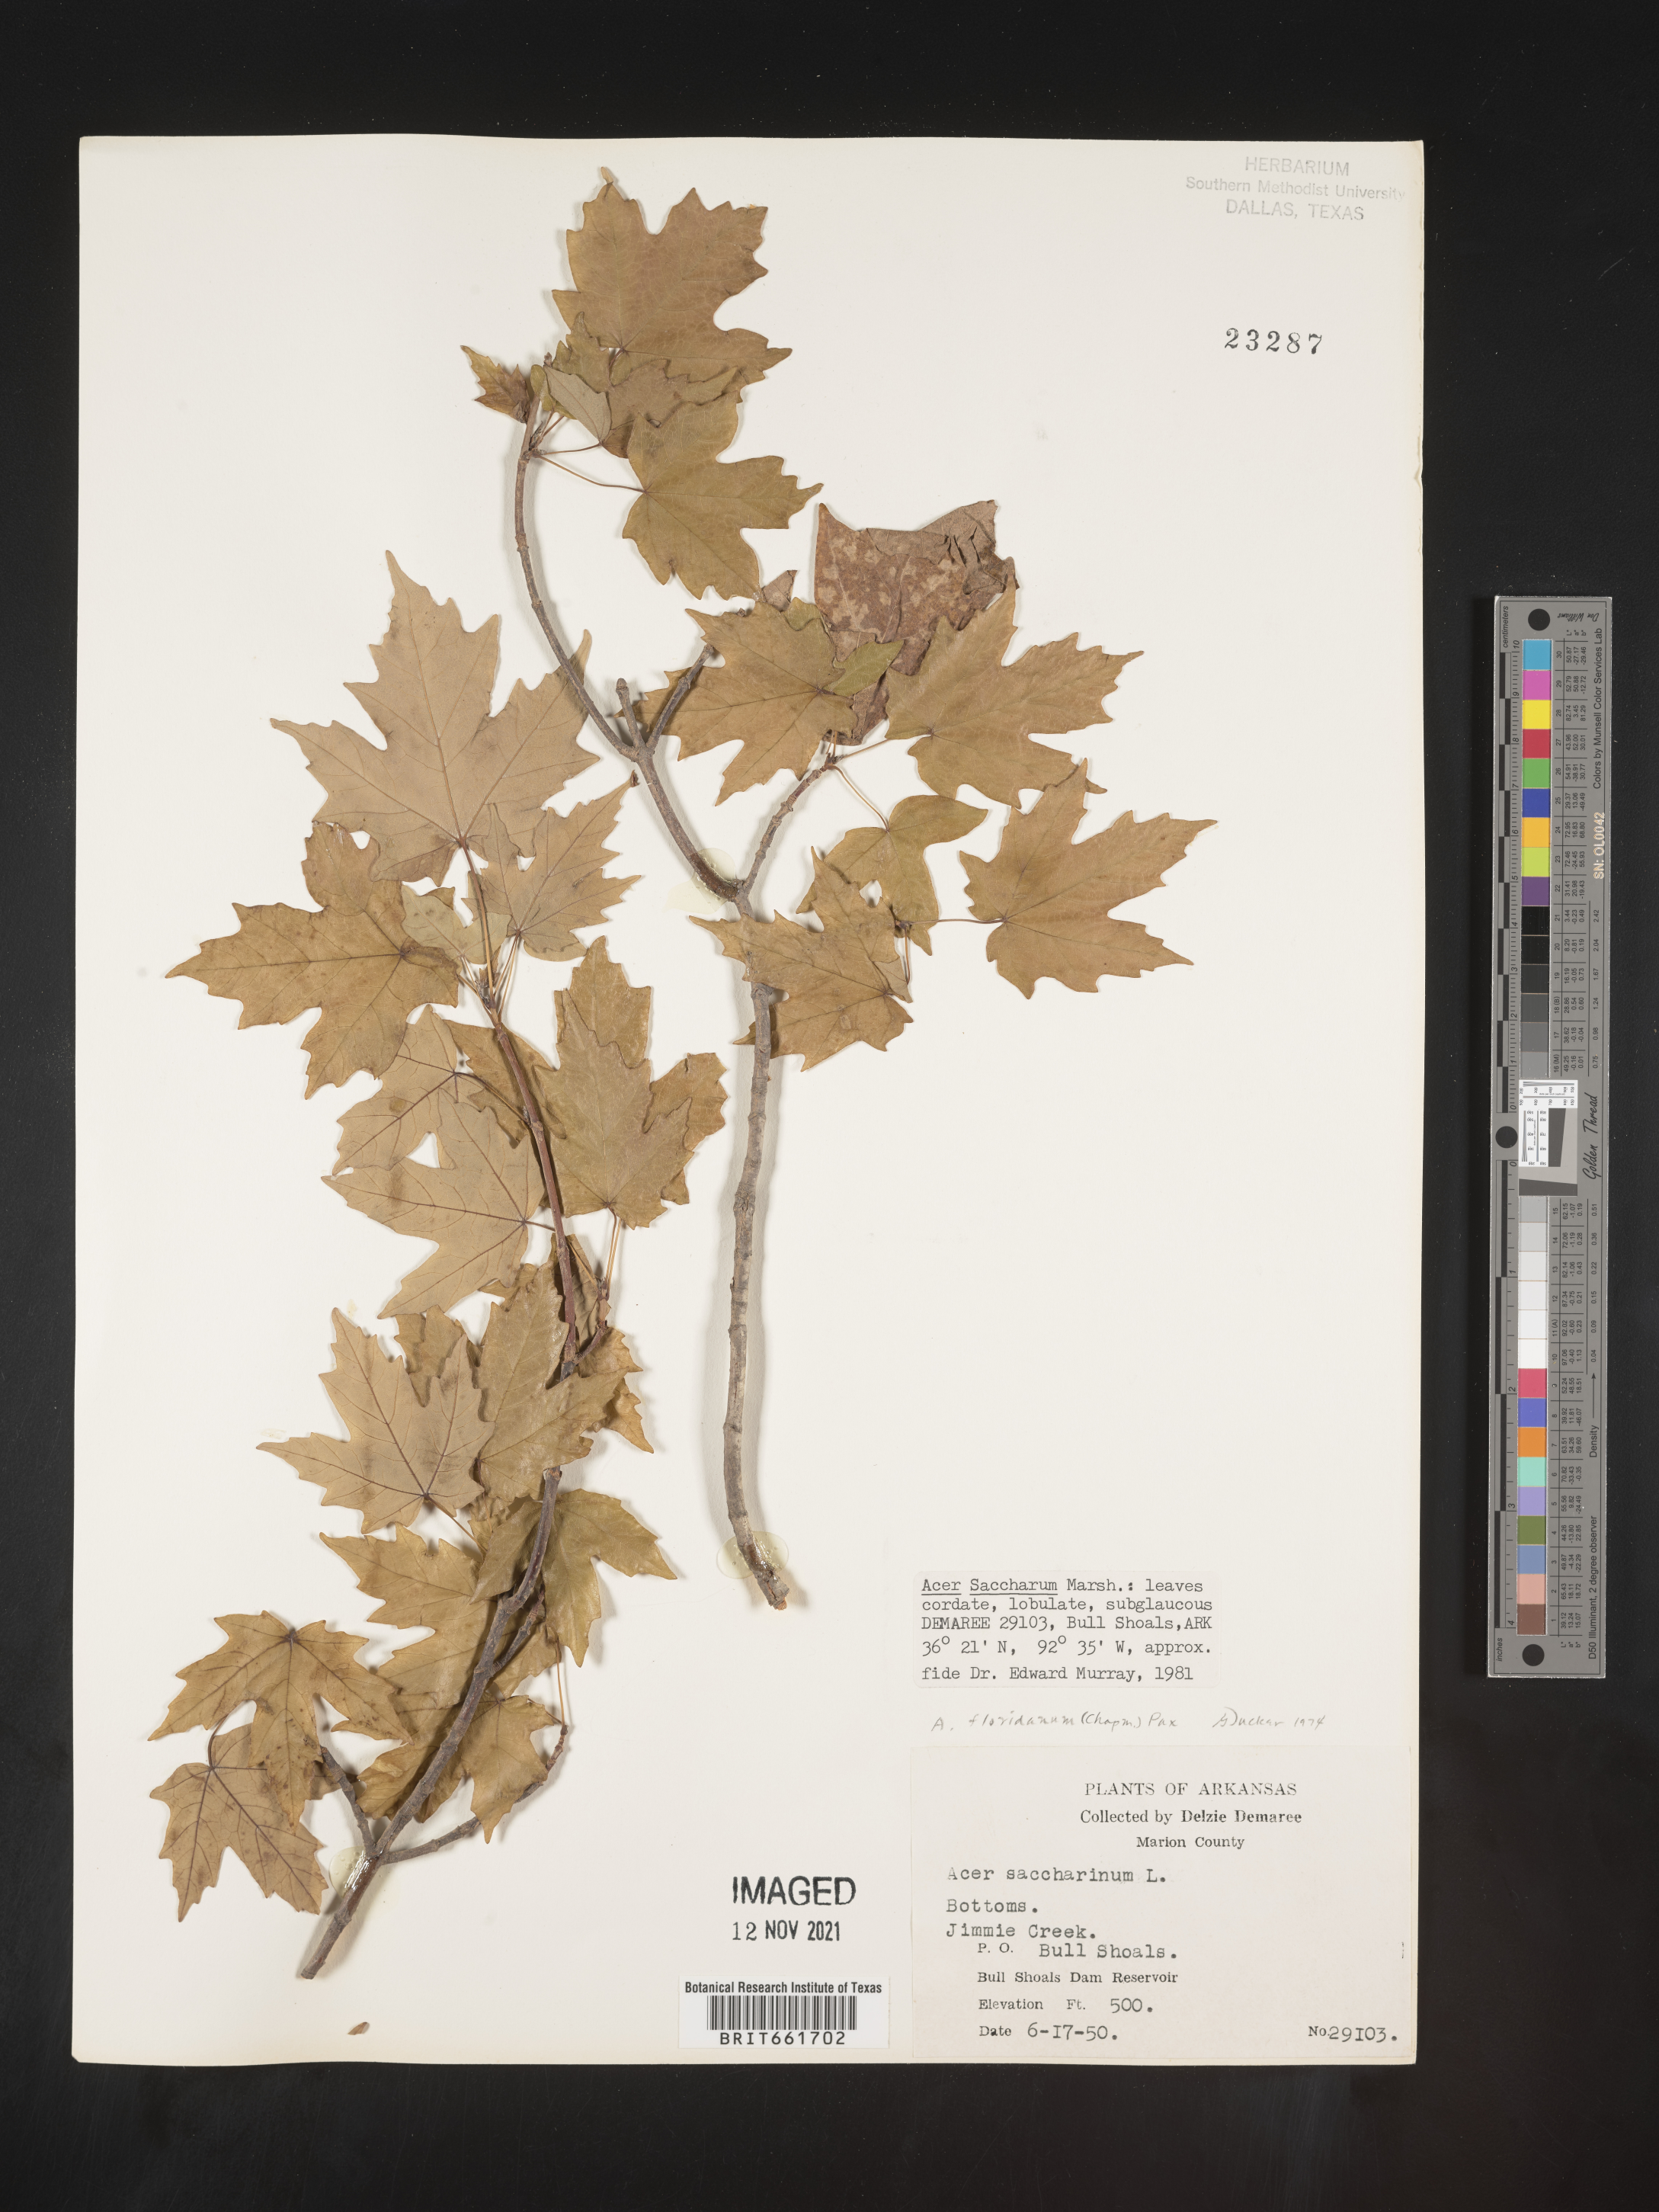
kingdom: Plantae
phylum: Tracheophyta
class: Magnoliopsida
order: Sapindales
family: Sapindaceae
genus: Acer
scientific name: Acer saccharum
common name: Sugar maple
